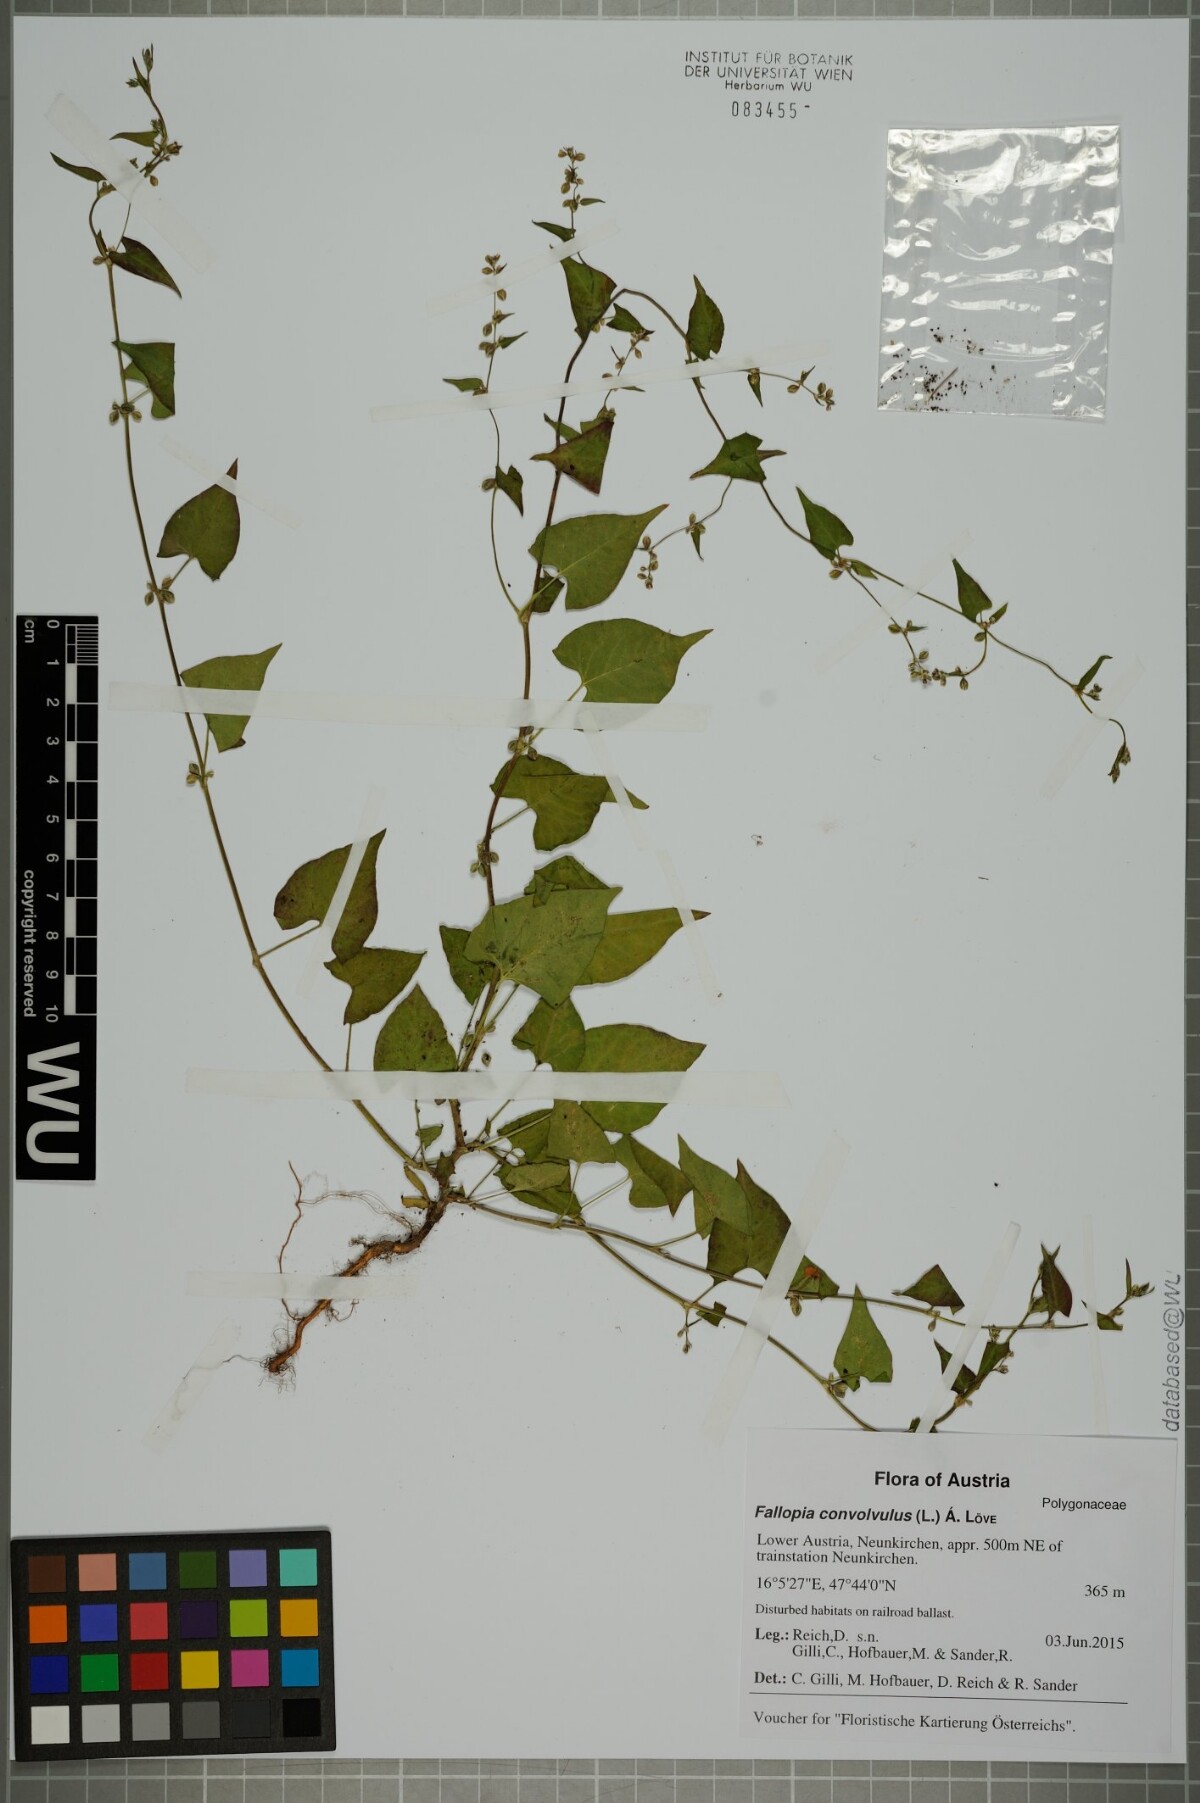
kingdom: Plantae
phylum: Tracheophyta
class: Magnoliopsida
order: Caryophyllales
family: Polygonaceae
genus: Fallopia
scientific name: Fallopia convolvulus
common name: Black bindweed
